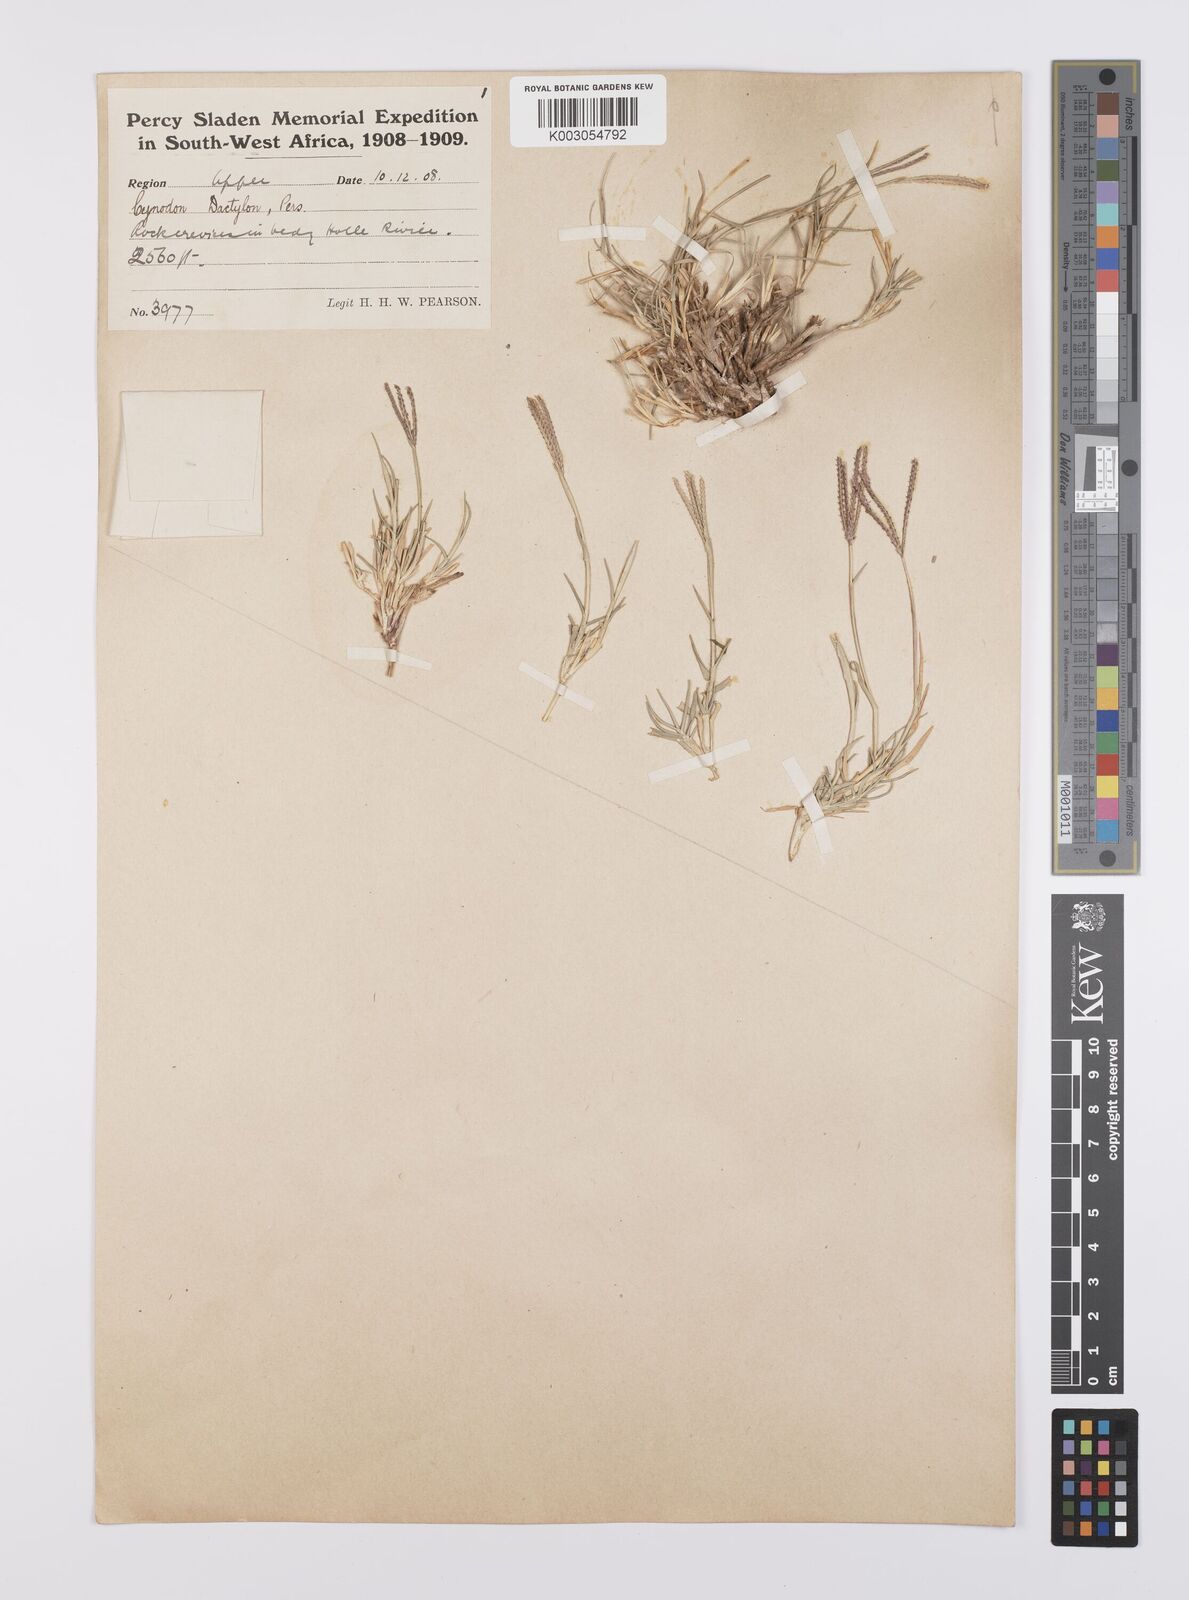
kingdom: Plantae
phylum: Tracheophyta
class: Liliopsida
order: Poales
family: Poaceae
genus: Cynodon
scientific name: Cynodon dactylon
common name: Bermuda grass
